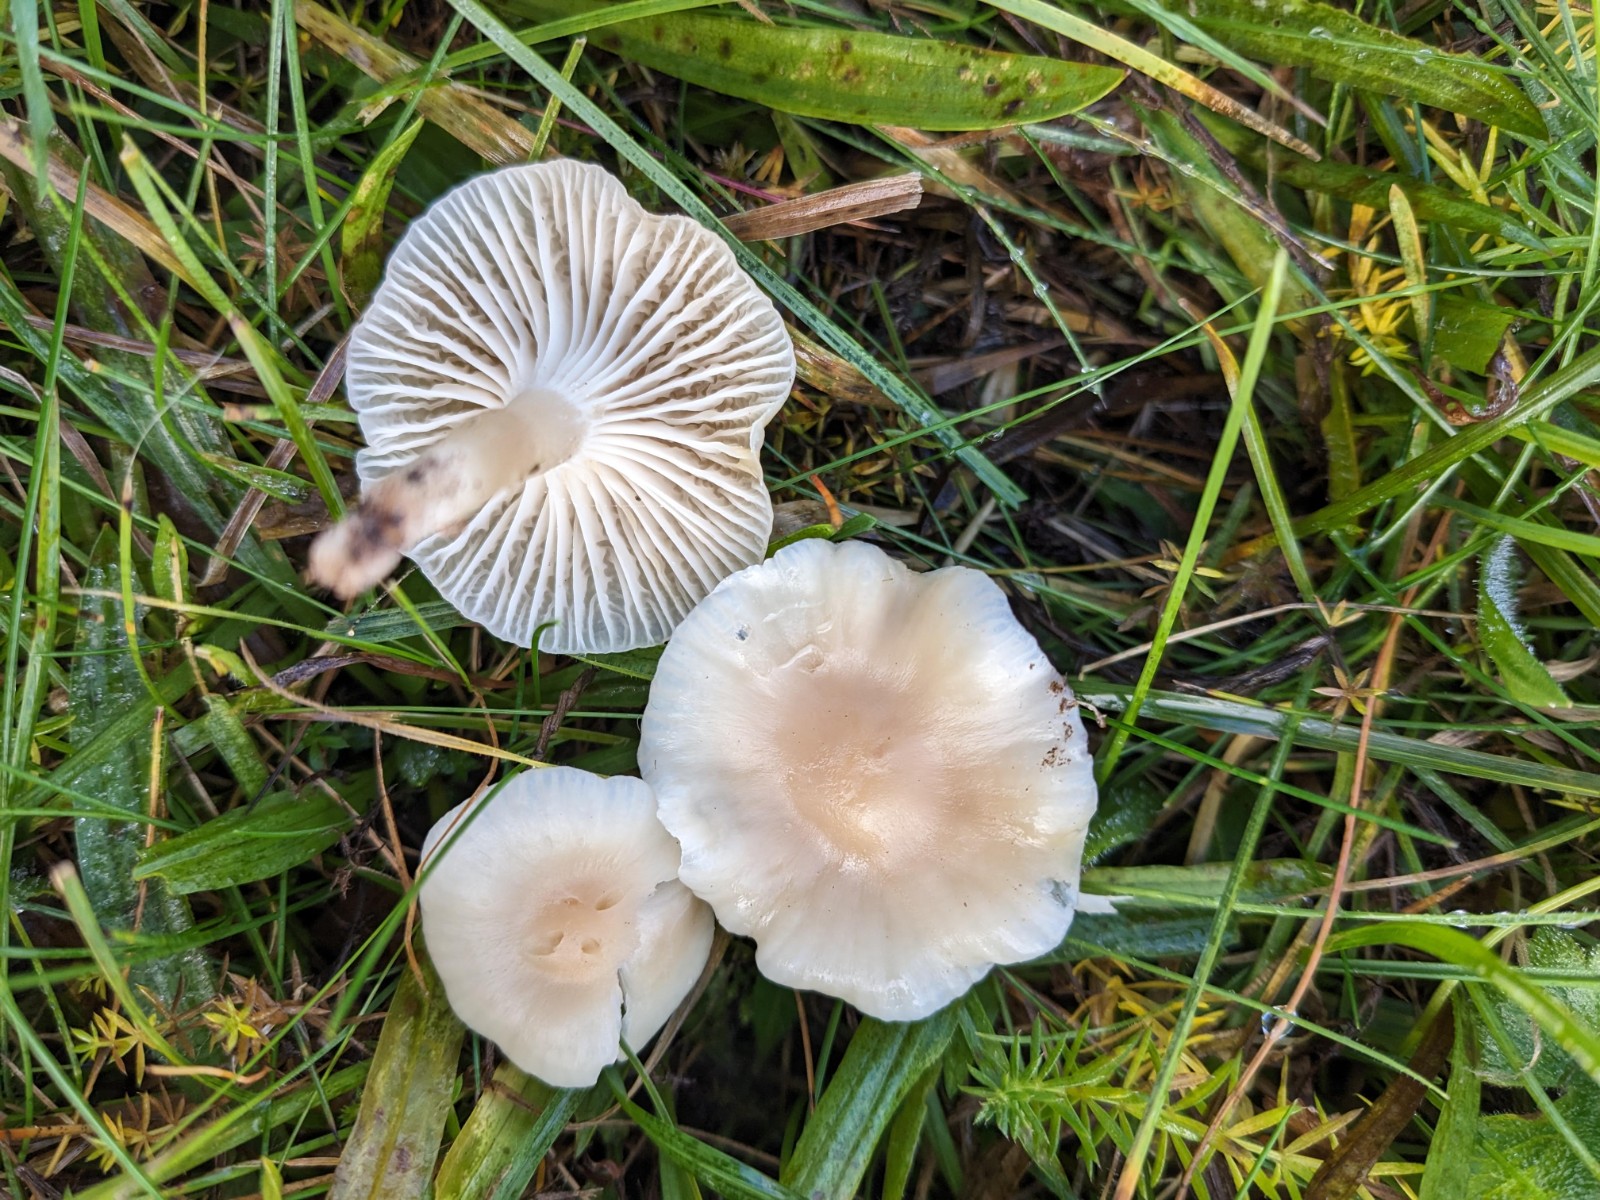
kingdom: Fungi
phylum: Basidiomycota
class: Agaricomycetes
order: Agaricales
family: Hygrophoraceae
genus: Cuphophyllus
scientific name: Cuphophyllus virgineus
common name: isabella-vokshat
